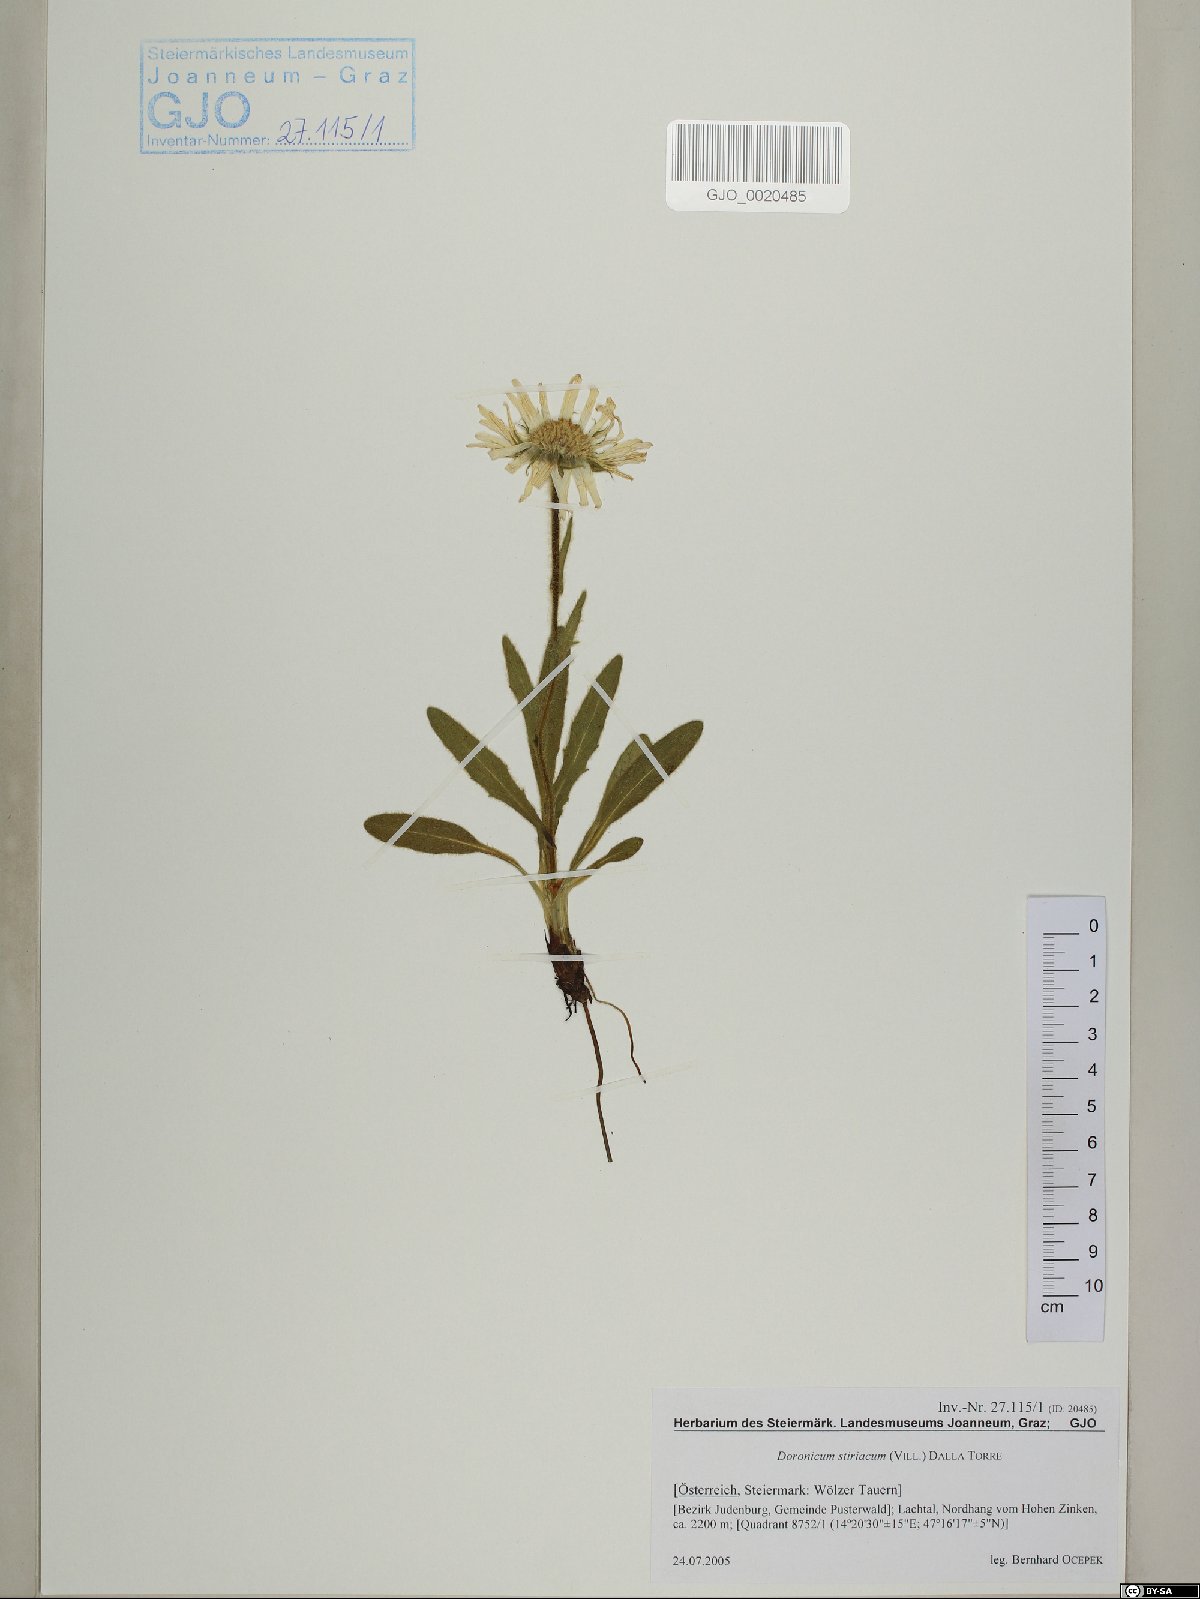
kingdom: Plantae
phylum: Tracheophyta
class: Magnoliopsida
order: Asterales
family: Asteraceae
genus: Doronicum
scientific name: Doronicum clusii
